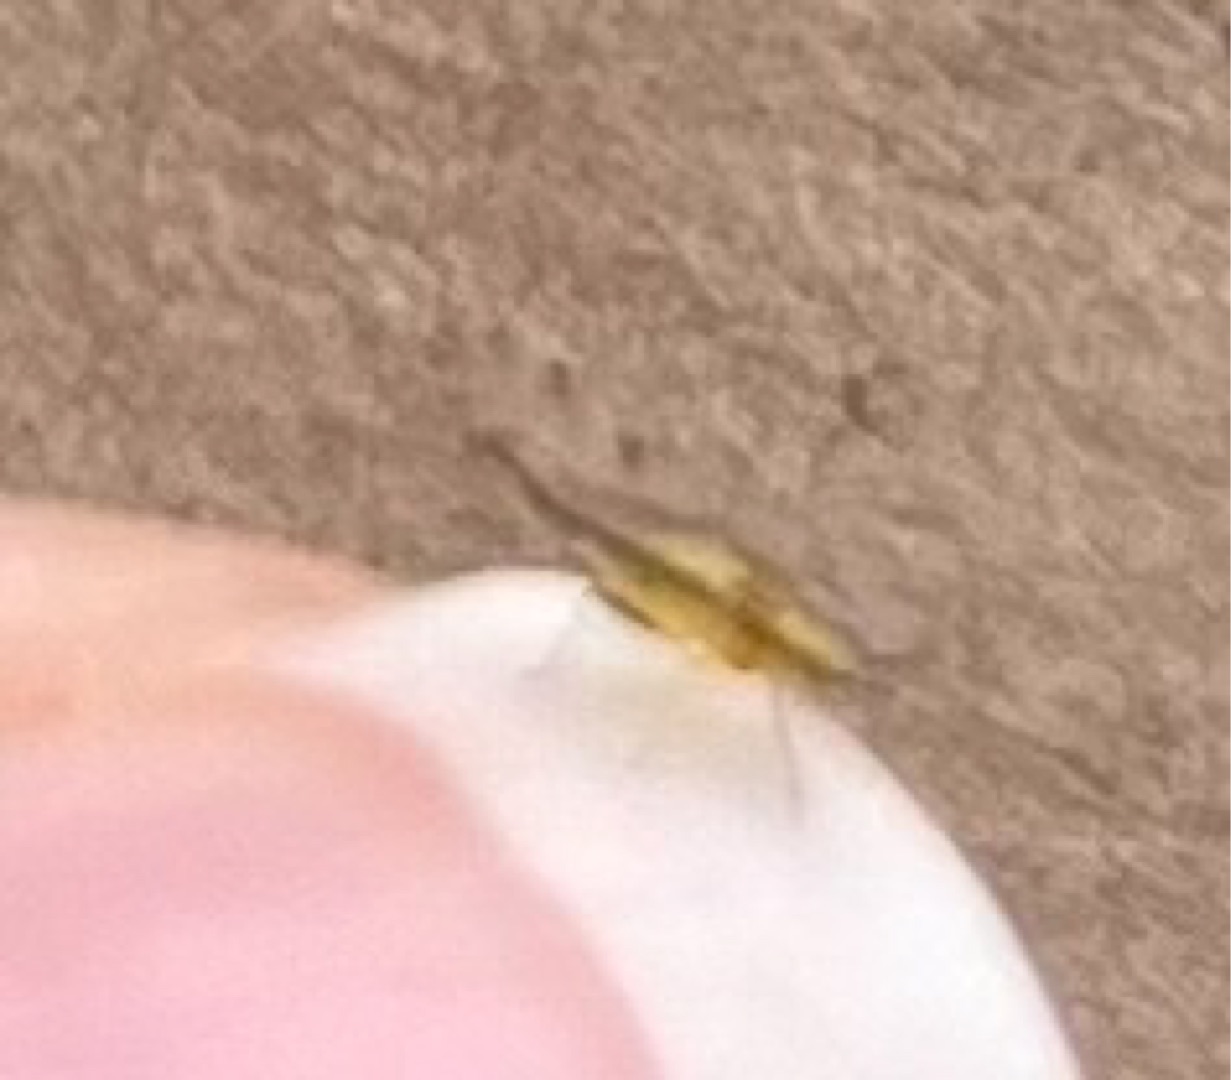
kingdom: Animalia
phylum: Arthropoda
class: Insecta
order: Hemiptera
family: Aphididae
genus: Eucallipterus
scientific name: Eucallipterus tiliae
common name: Lindebladlus
